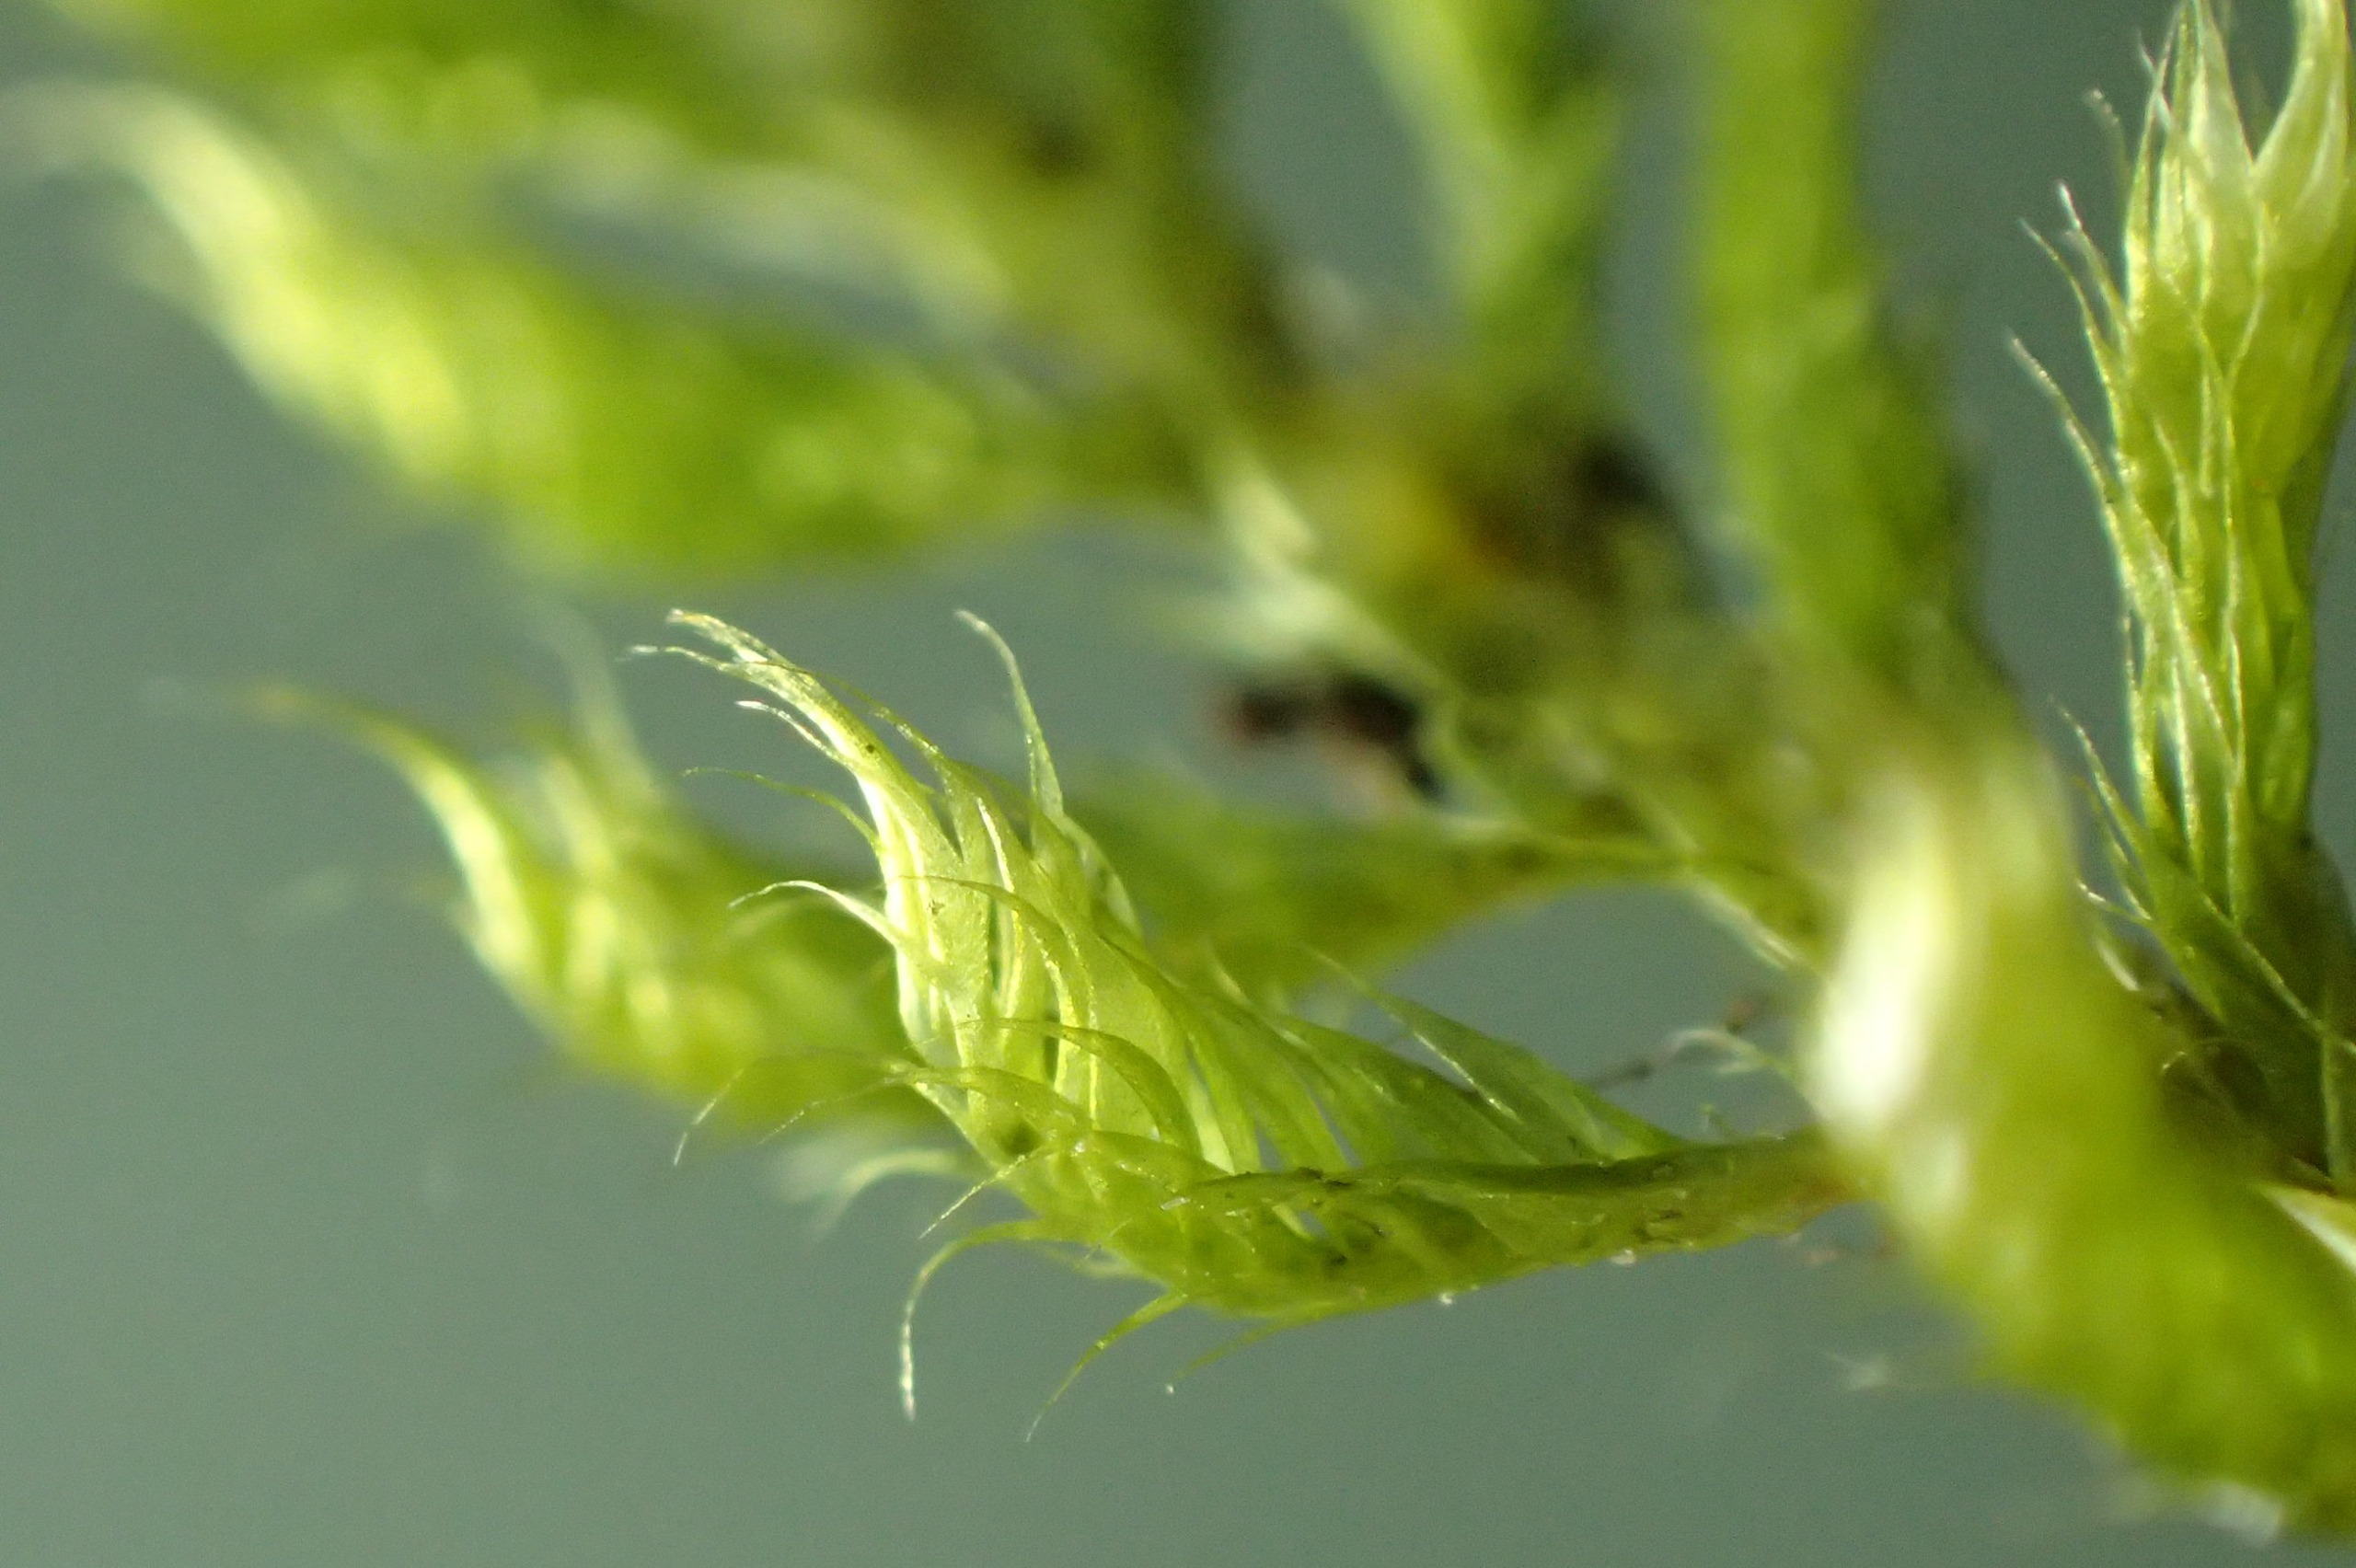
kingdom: Plantae
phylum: Bryophyta
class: Bryopsida
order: Hypnales
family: Hypnaceae
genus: Hypnum
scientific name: Hypnum cupressiforme
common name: Almindelig cypresmos
